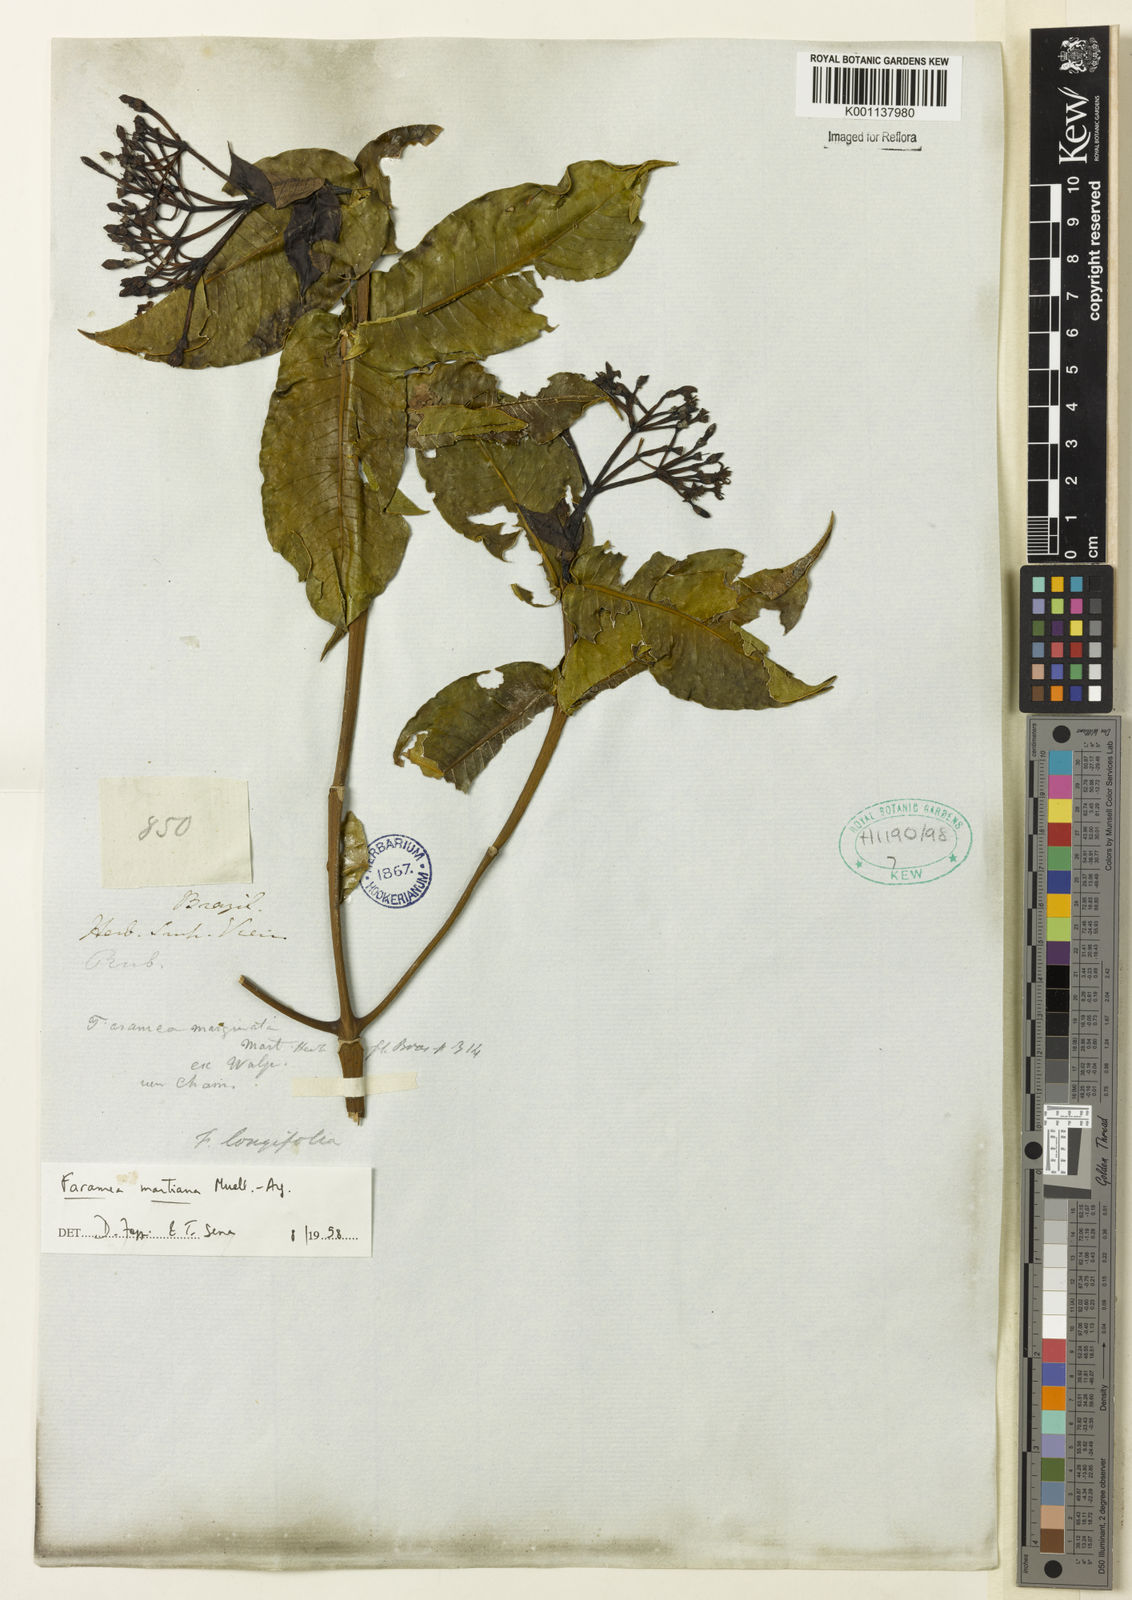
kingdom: Plantae
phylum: Tracheophyta
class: Magnoliopsida
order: Gentianales
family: Rubiaceae
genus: Faramea
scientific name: Faramea
